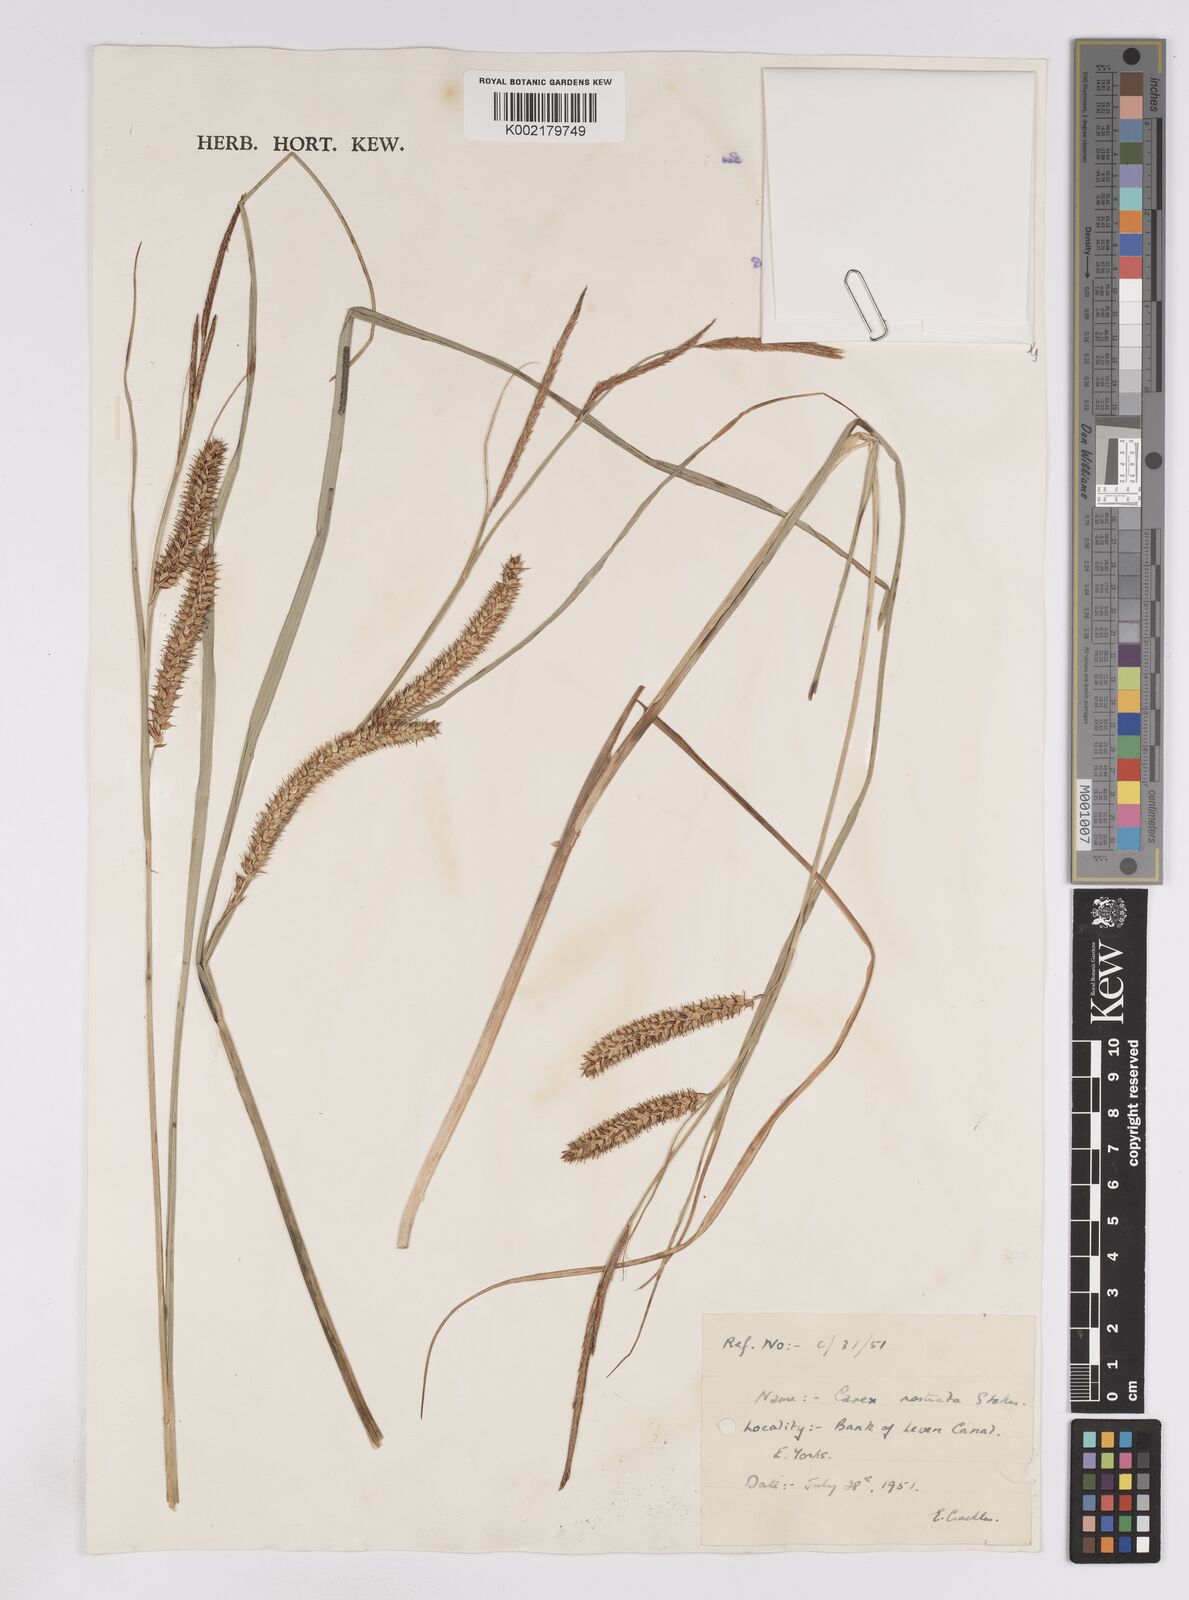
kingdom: Plantae
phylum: Tracheophyta
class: Liliopsida
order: Poales
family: Cyperaceae
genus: Carex
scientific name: Carex rostrata
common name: Bottle sedge
